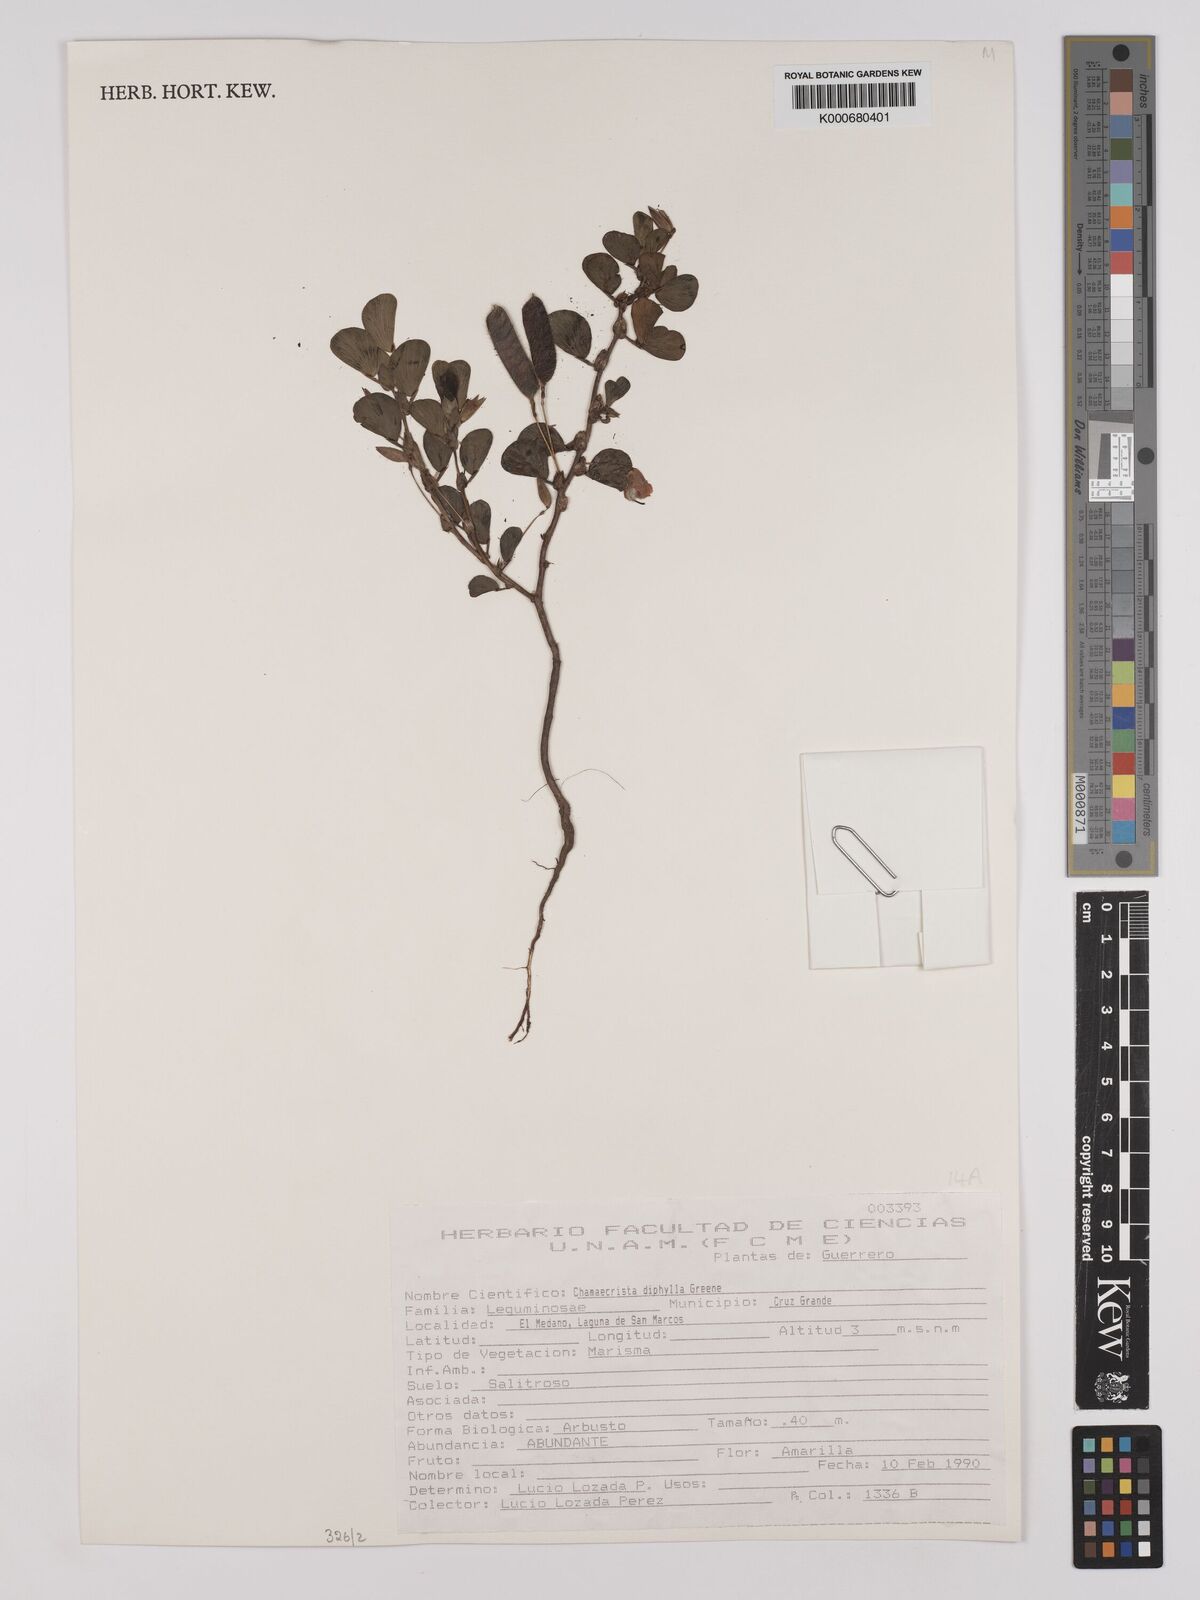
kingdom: Plantae
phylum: Tracheophyta
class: Magnoliopsida
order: Fabales
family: Fabaceae
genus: Chamaecrista
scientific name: Chamaecrista diphylla
